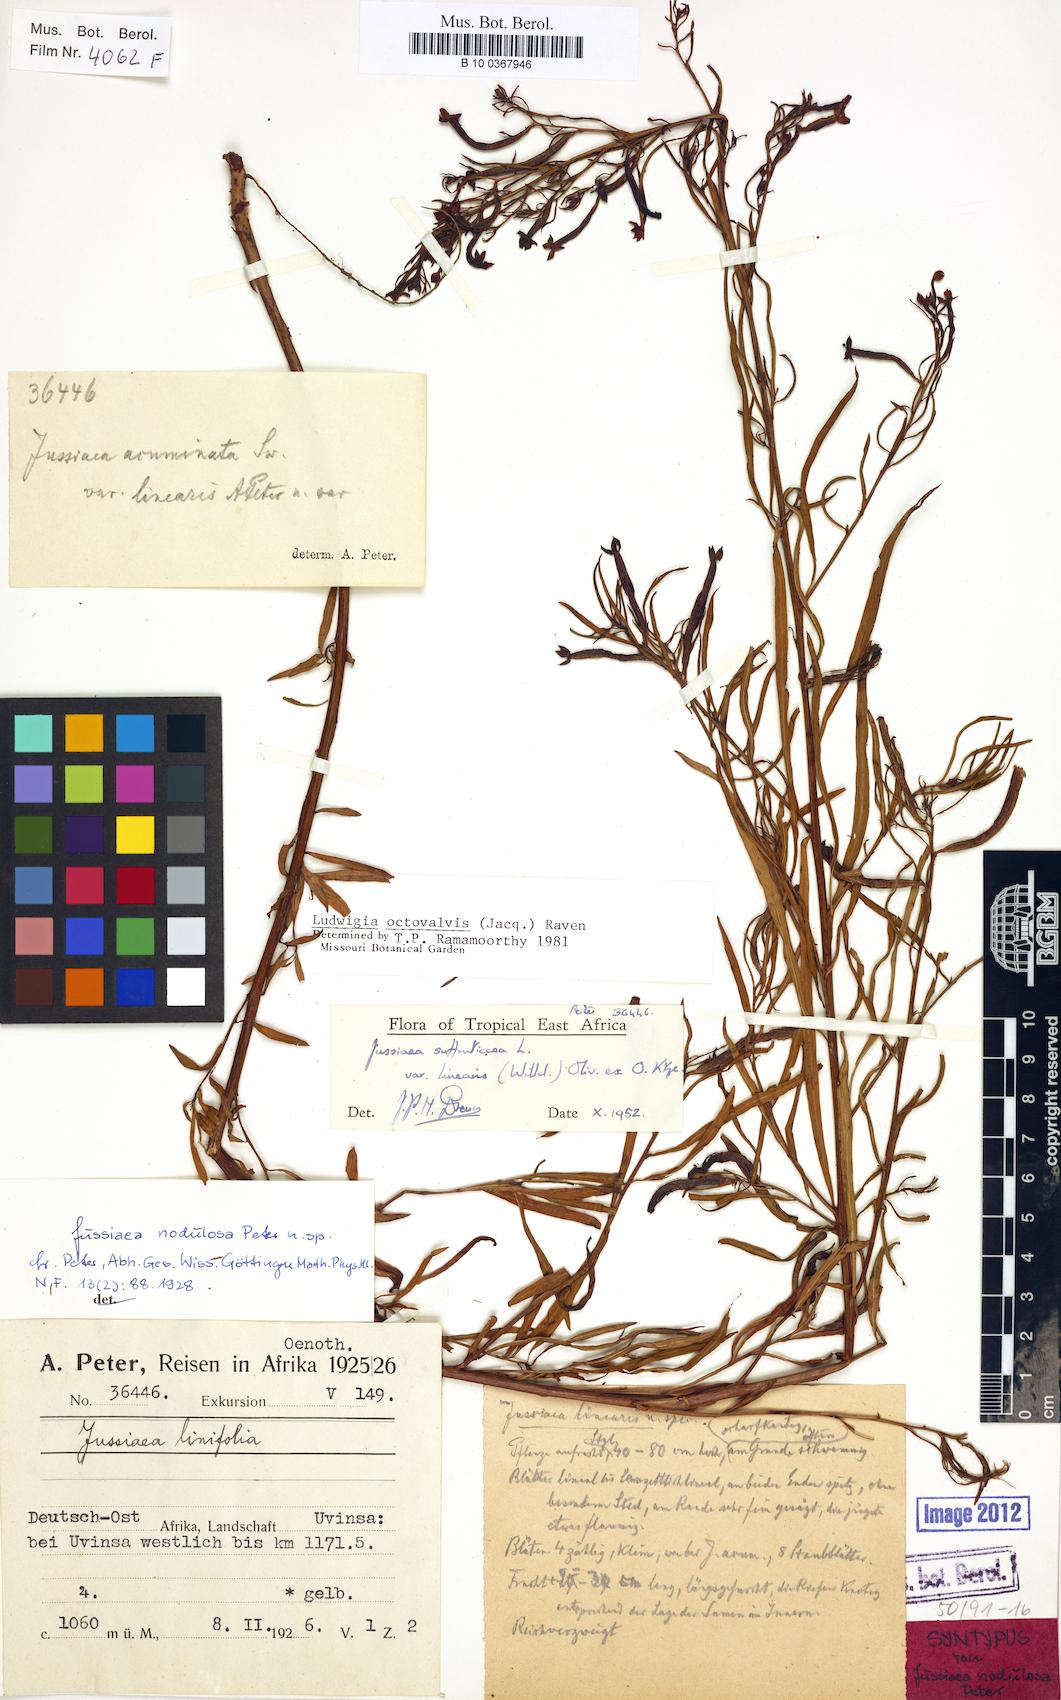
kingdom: Plantae
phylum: Tracheophyta
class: Magnoliopsida
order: Myrtales
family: Onagraceae
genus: Ludwigia
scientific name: Ludwigia octovalvis
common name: Water-primrose
